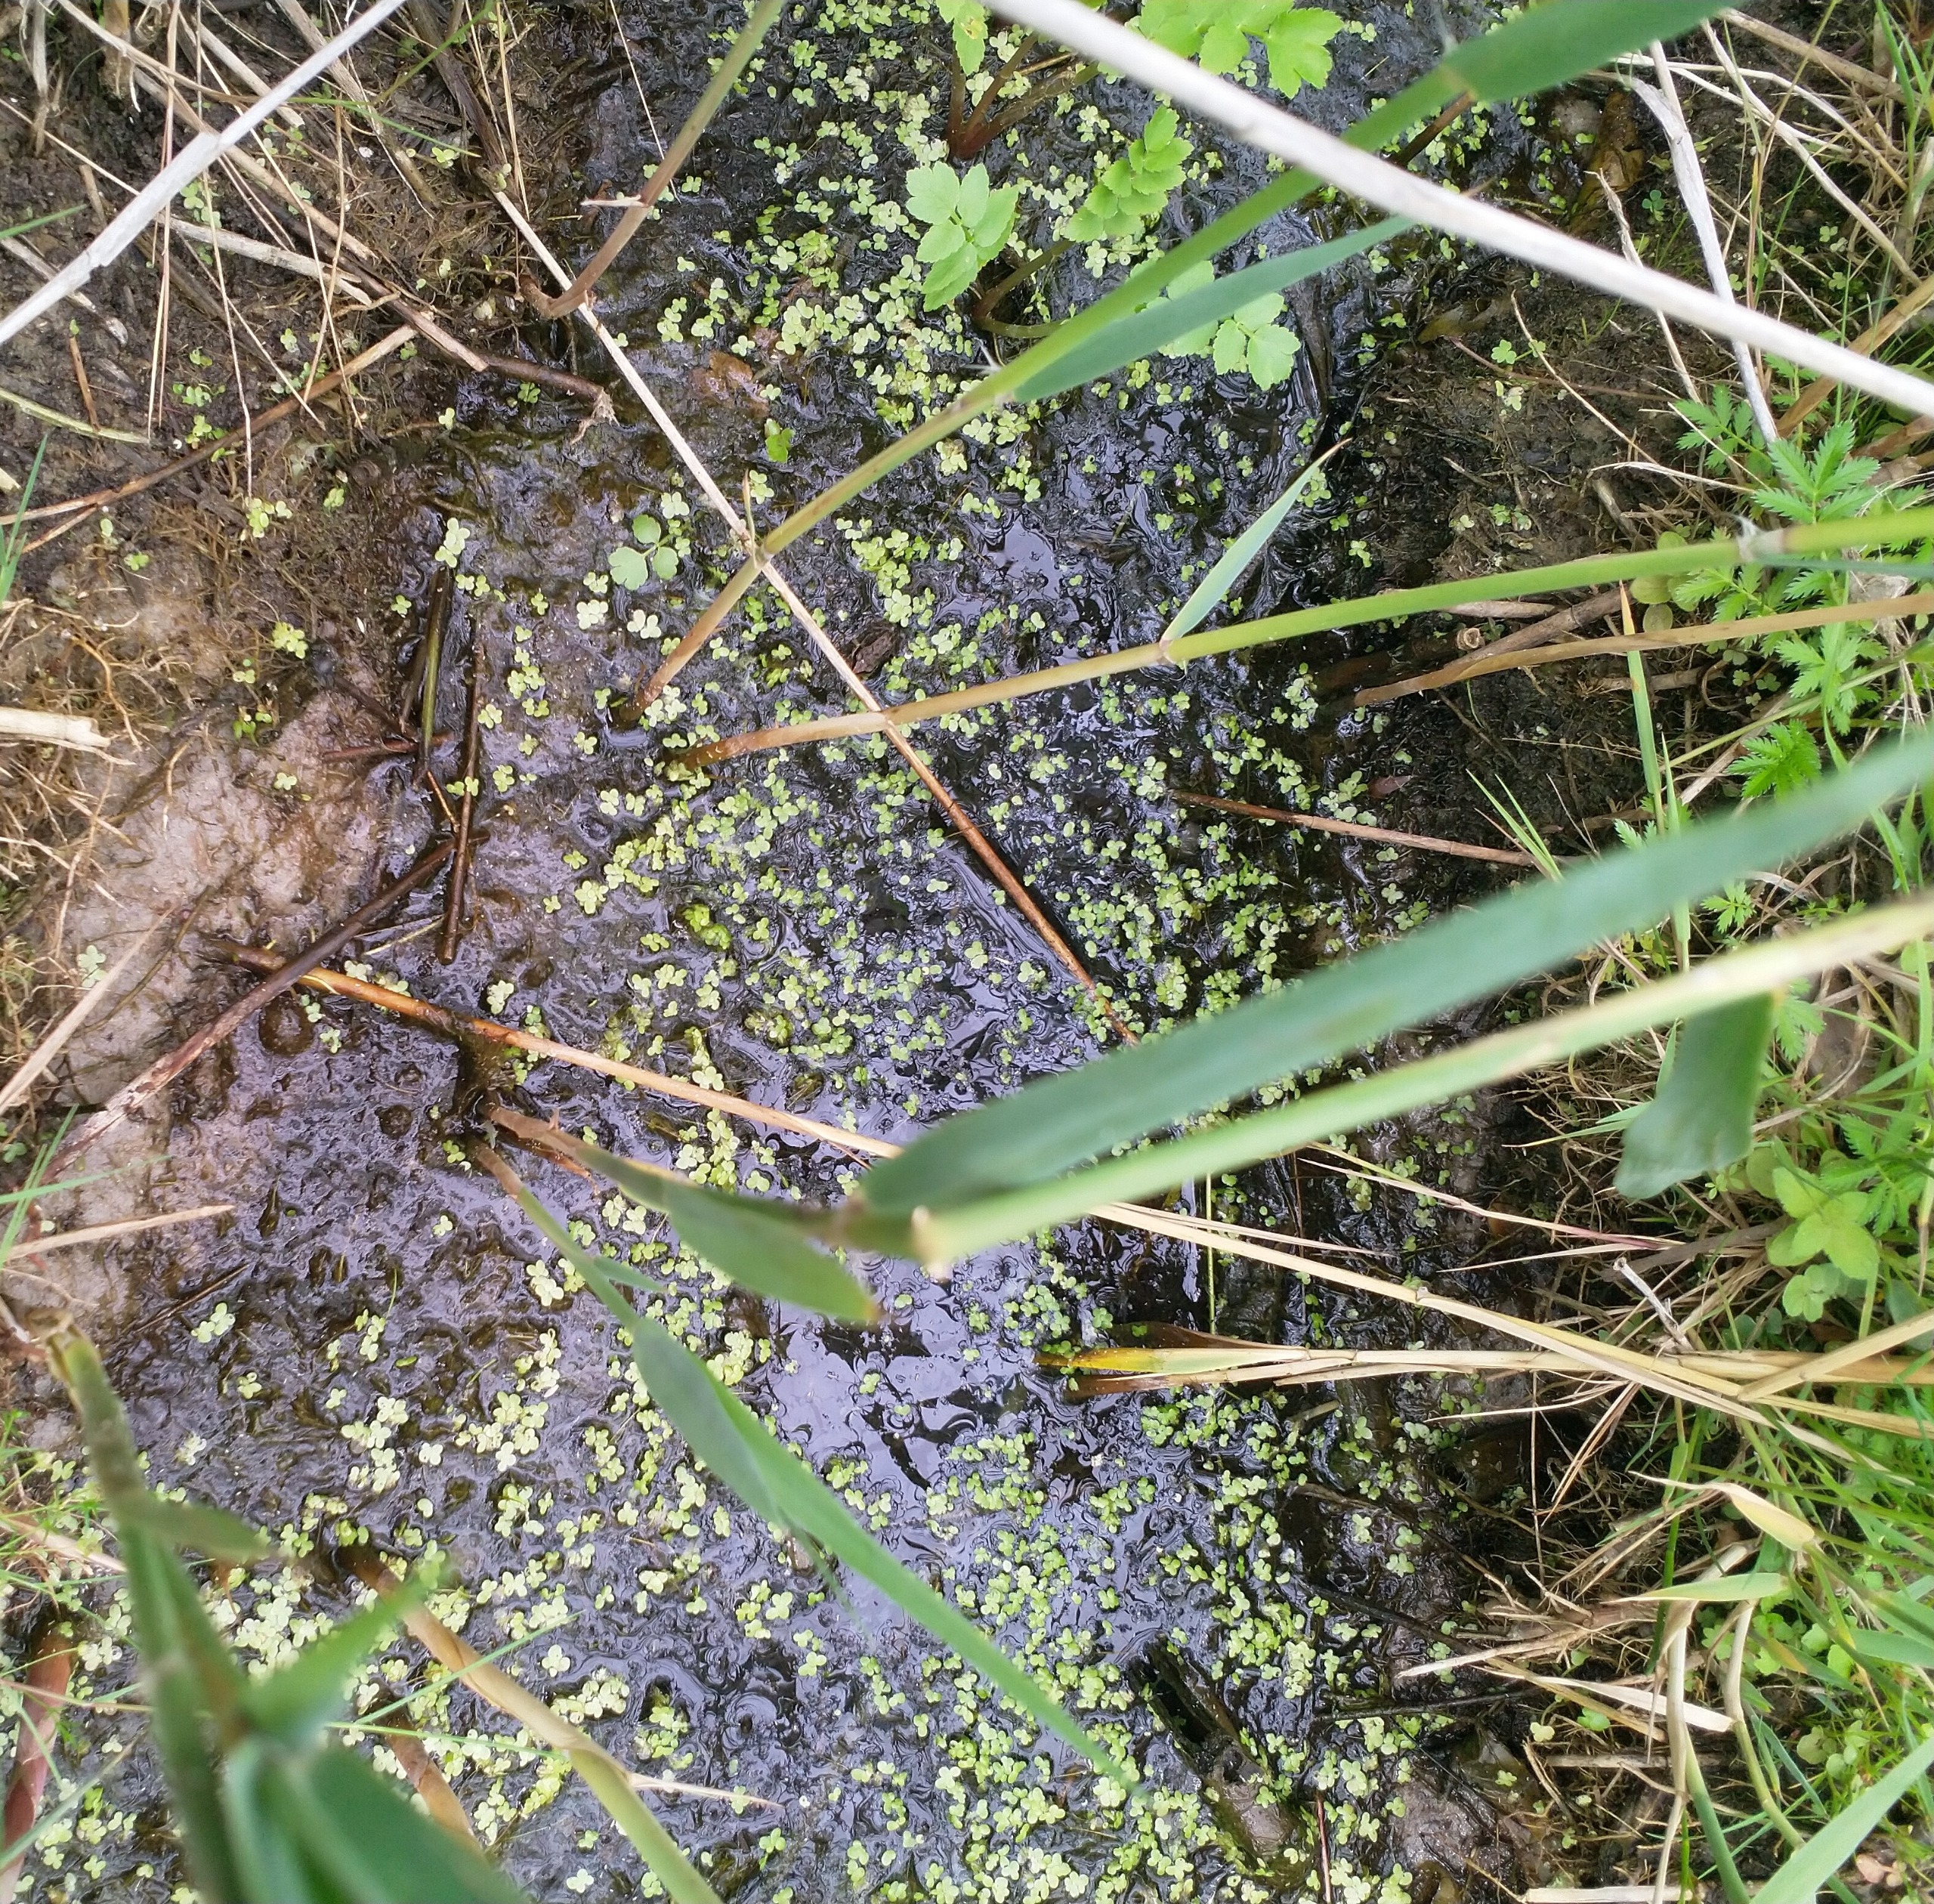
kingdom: Plantae
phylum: Tracheophyta
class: Liliopsida
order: Alismatales
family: Araceae
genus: Lemna
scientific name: Lemna minor
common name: Liden andemad
